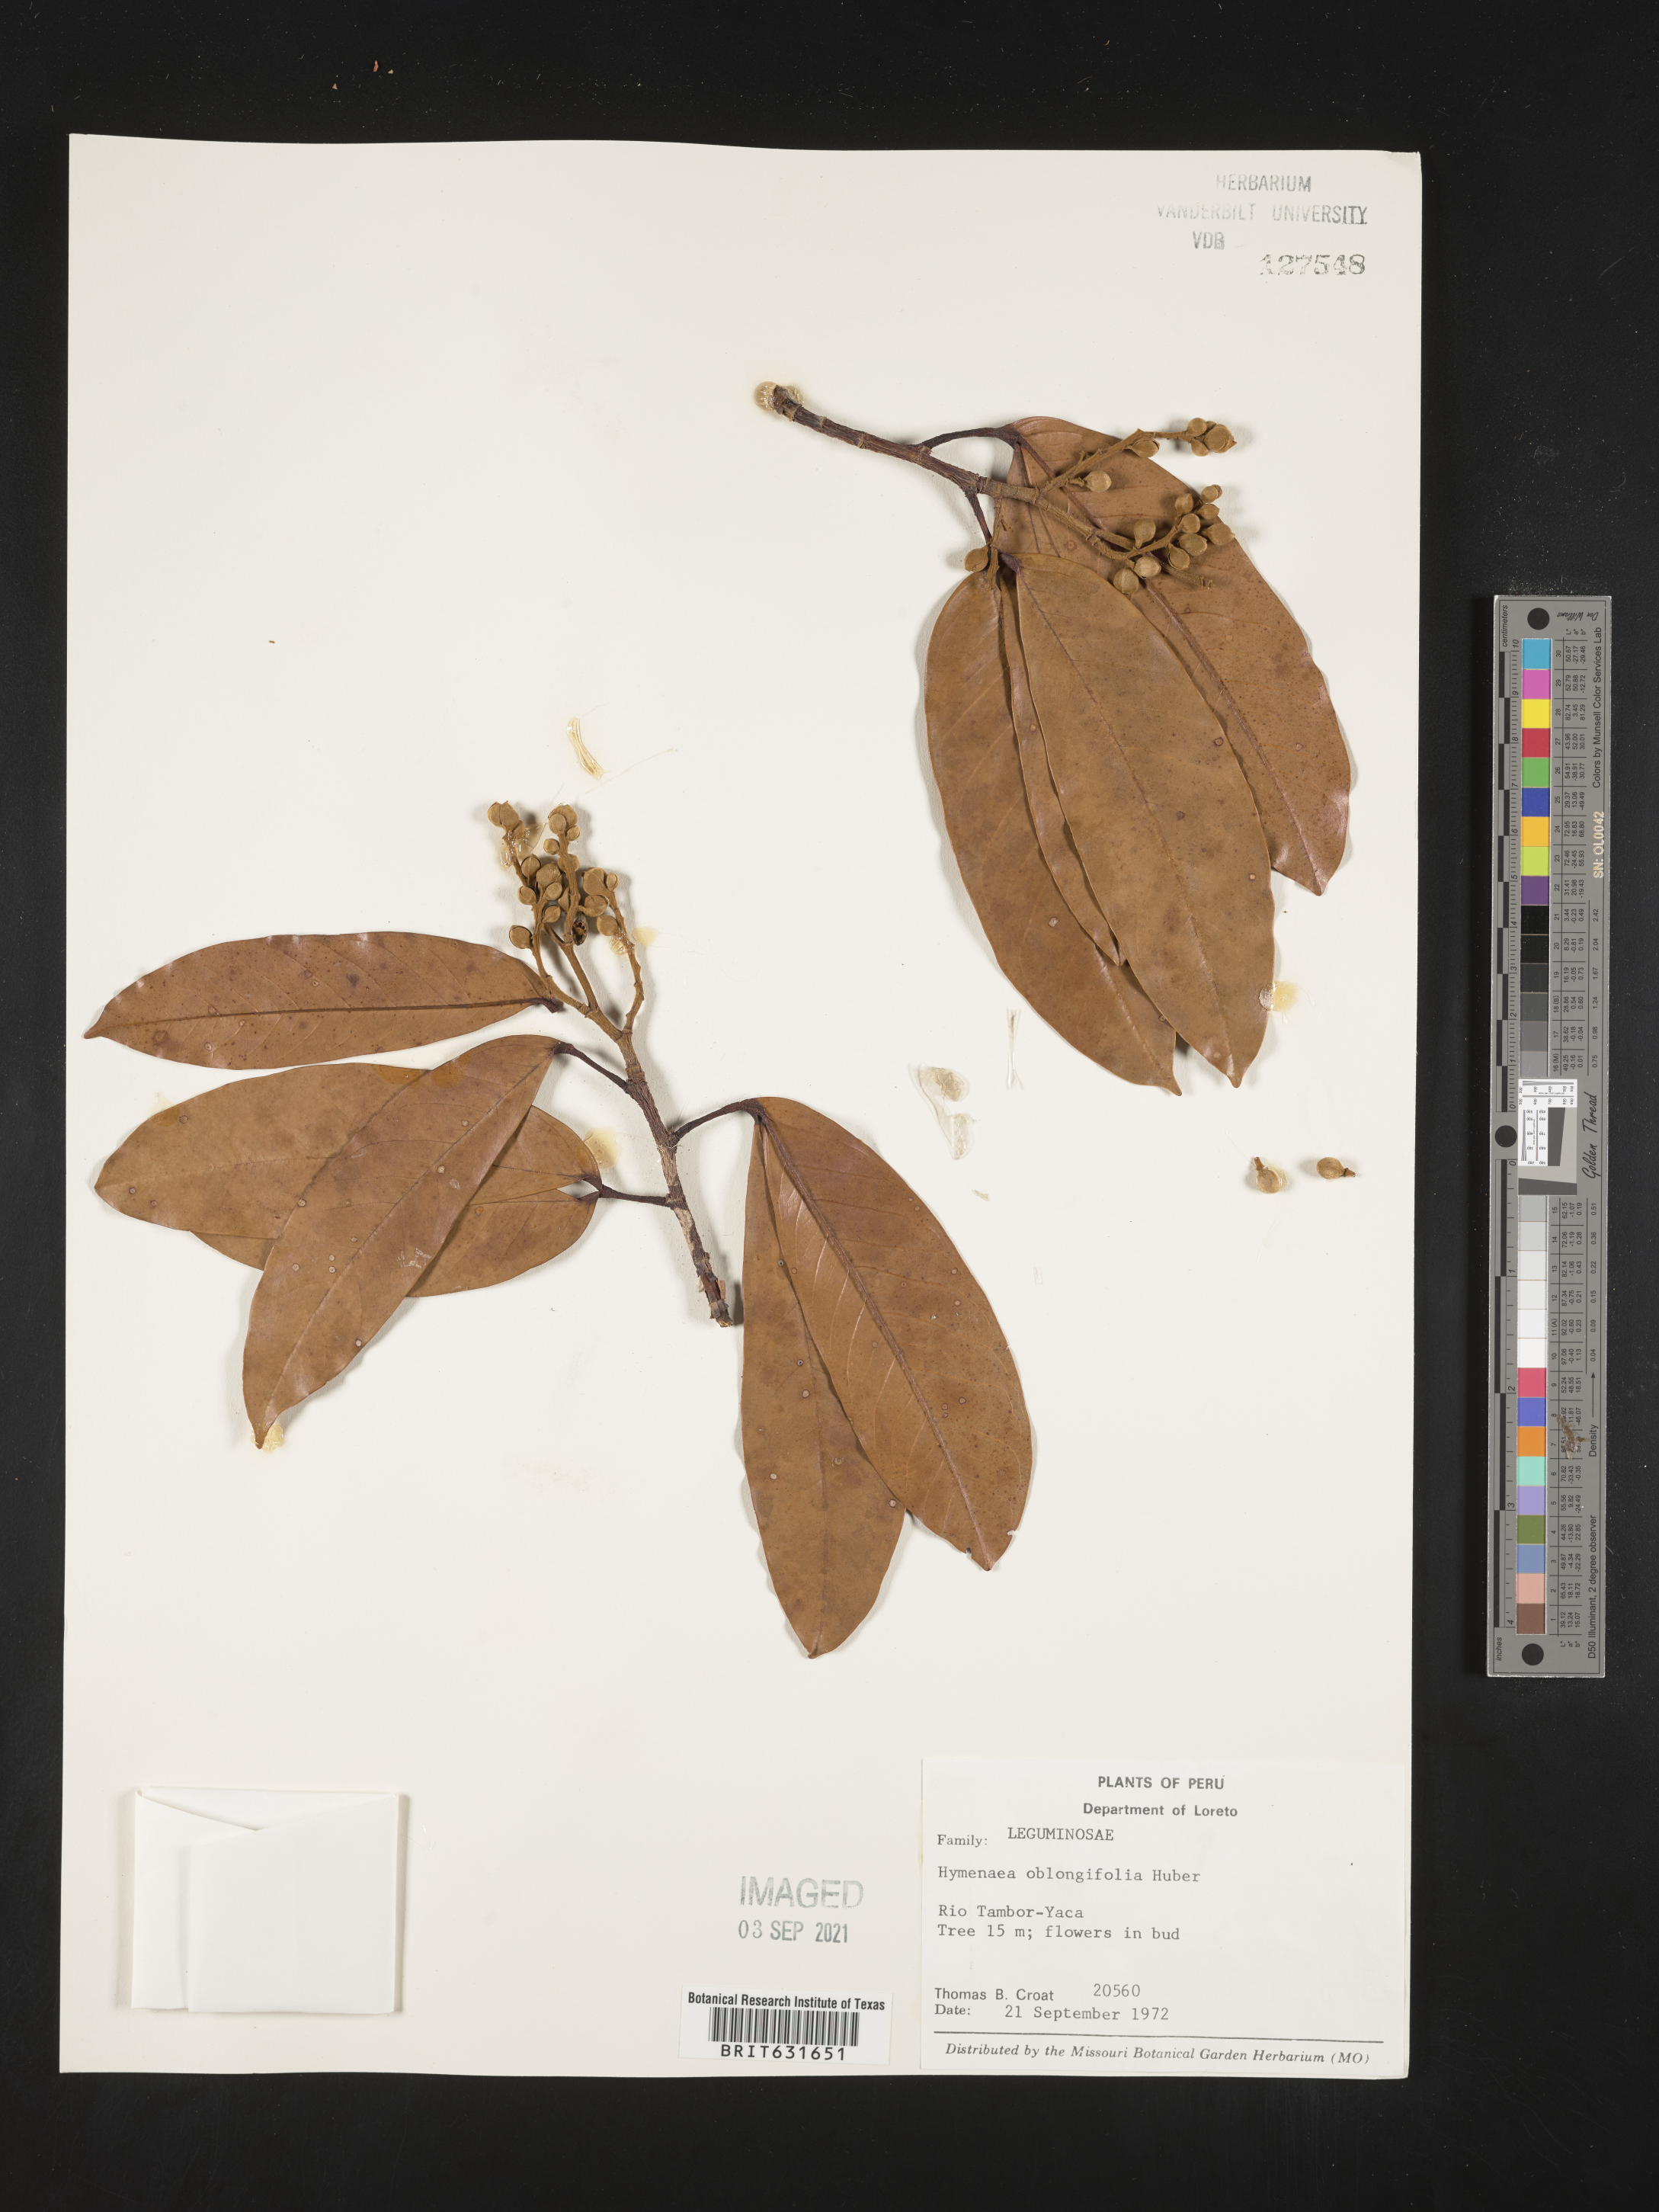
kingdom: Plantae
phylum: Tracheophyta
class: Magnoliopsida
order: Fabales
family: Fabaceae
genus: Hymenaea
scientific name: Hymenaea
